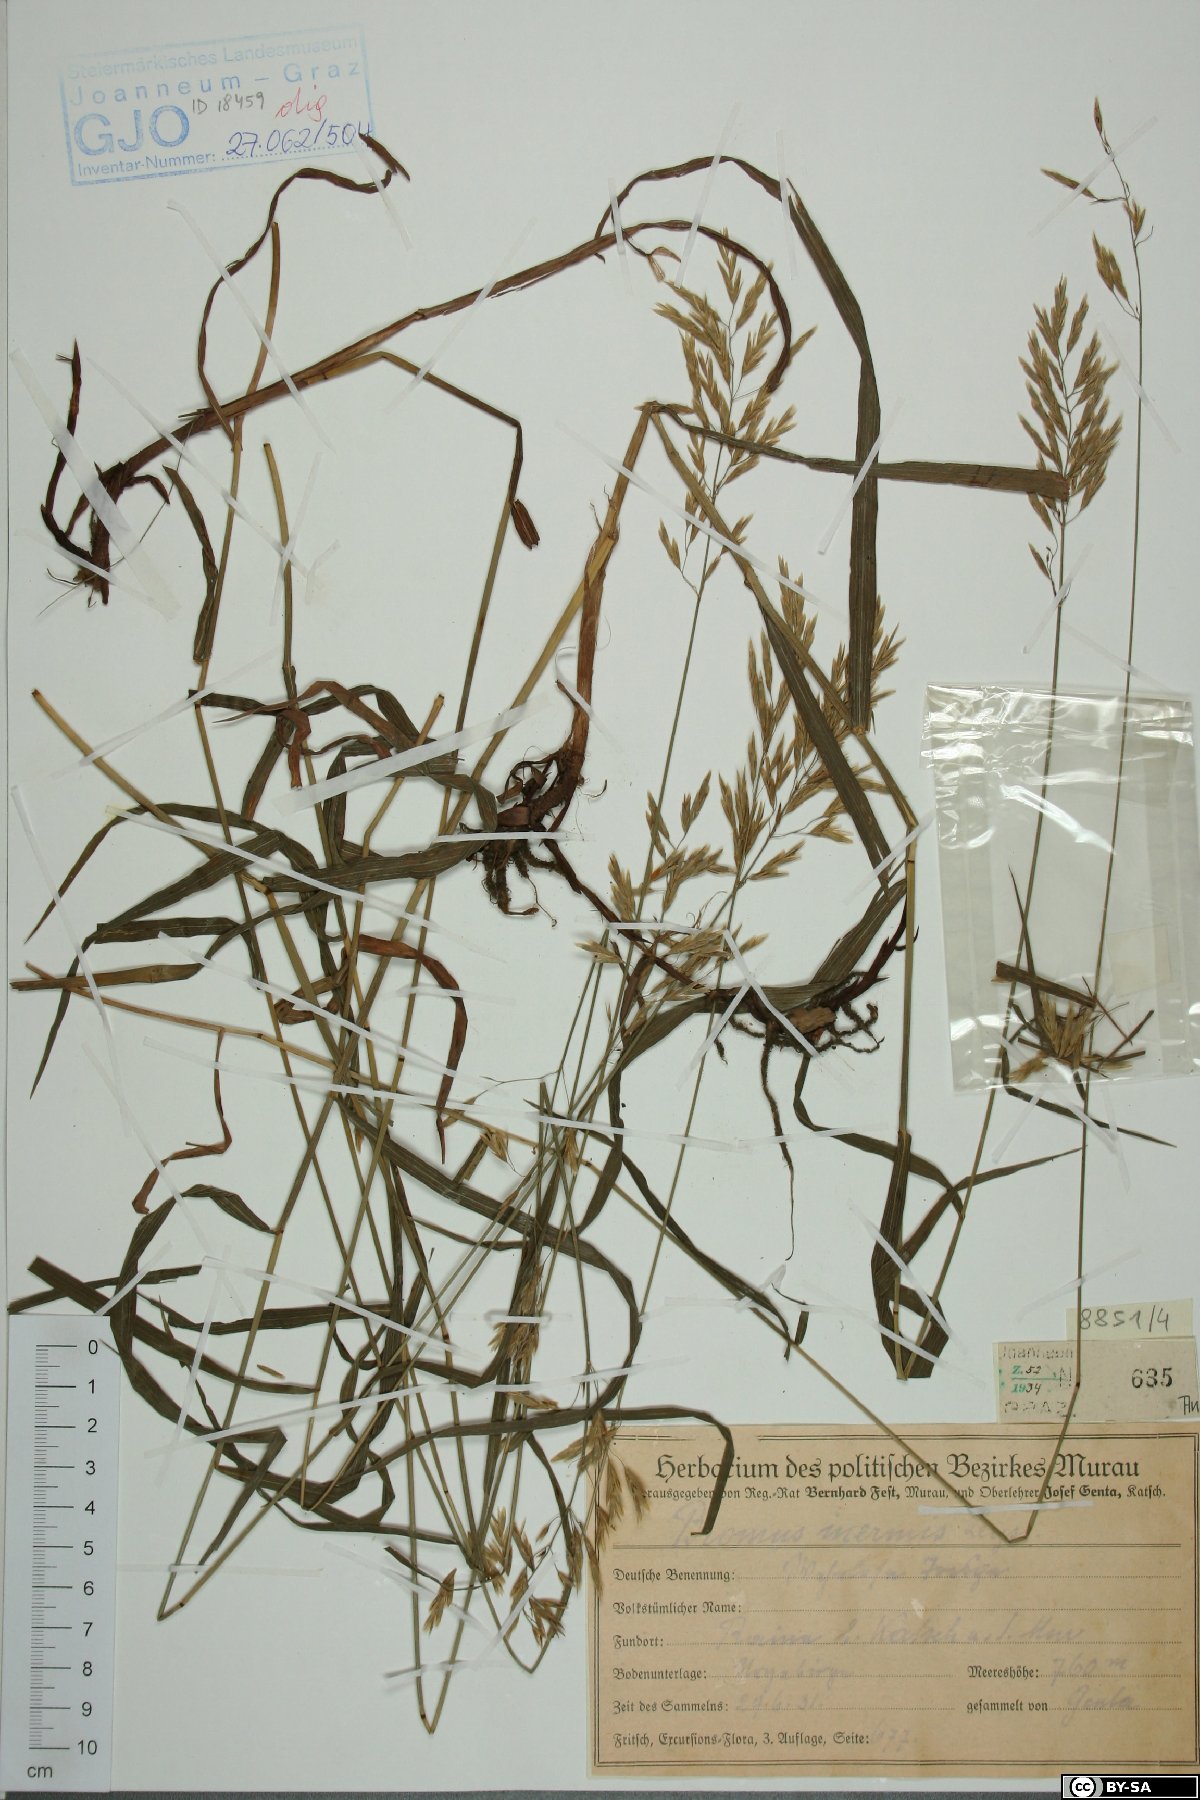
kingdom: Plantae
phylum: Tracheophyta
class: Liliopsida
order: Poales
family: Poaceae
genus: Bromus
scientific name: Bromus inermis
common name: Smooth brome
